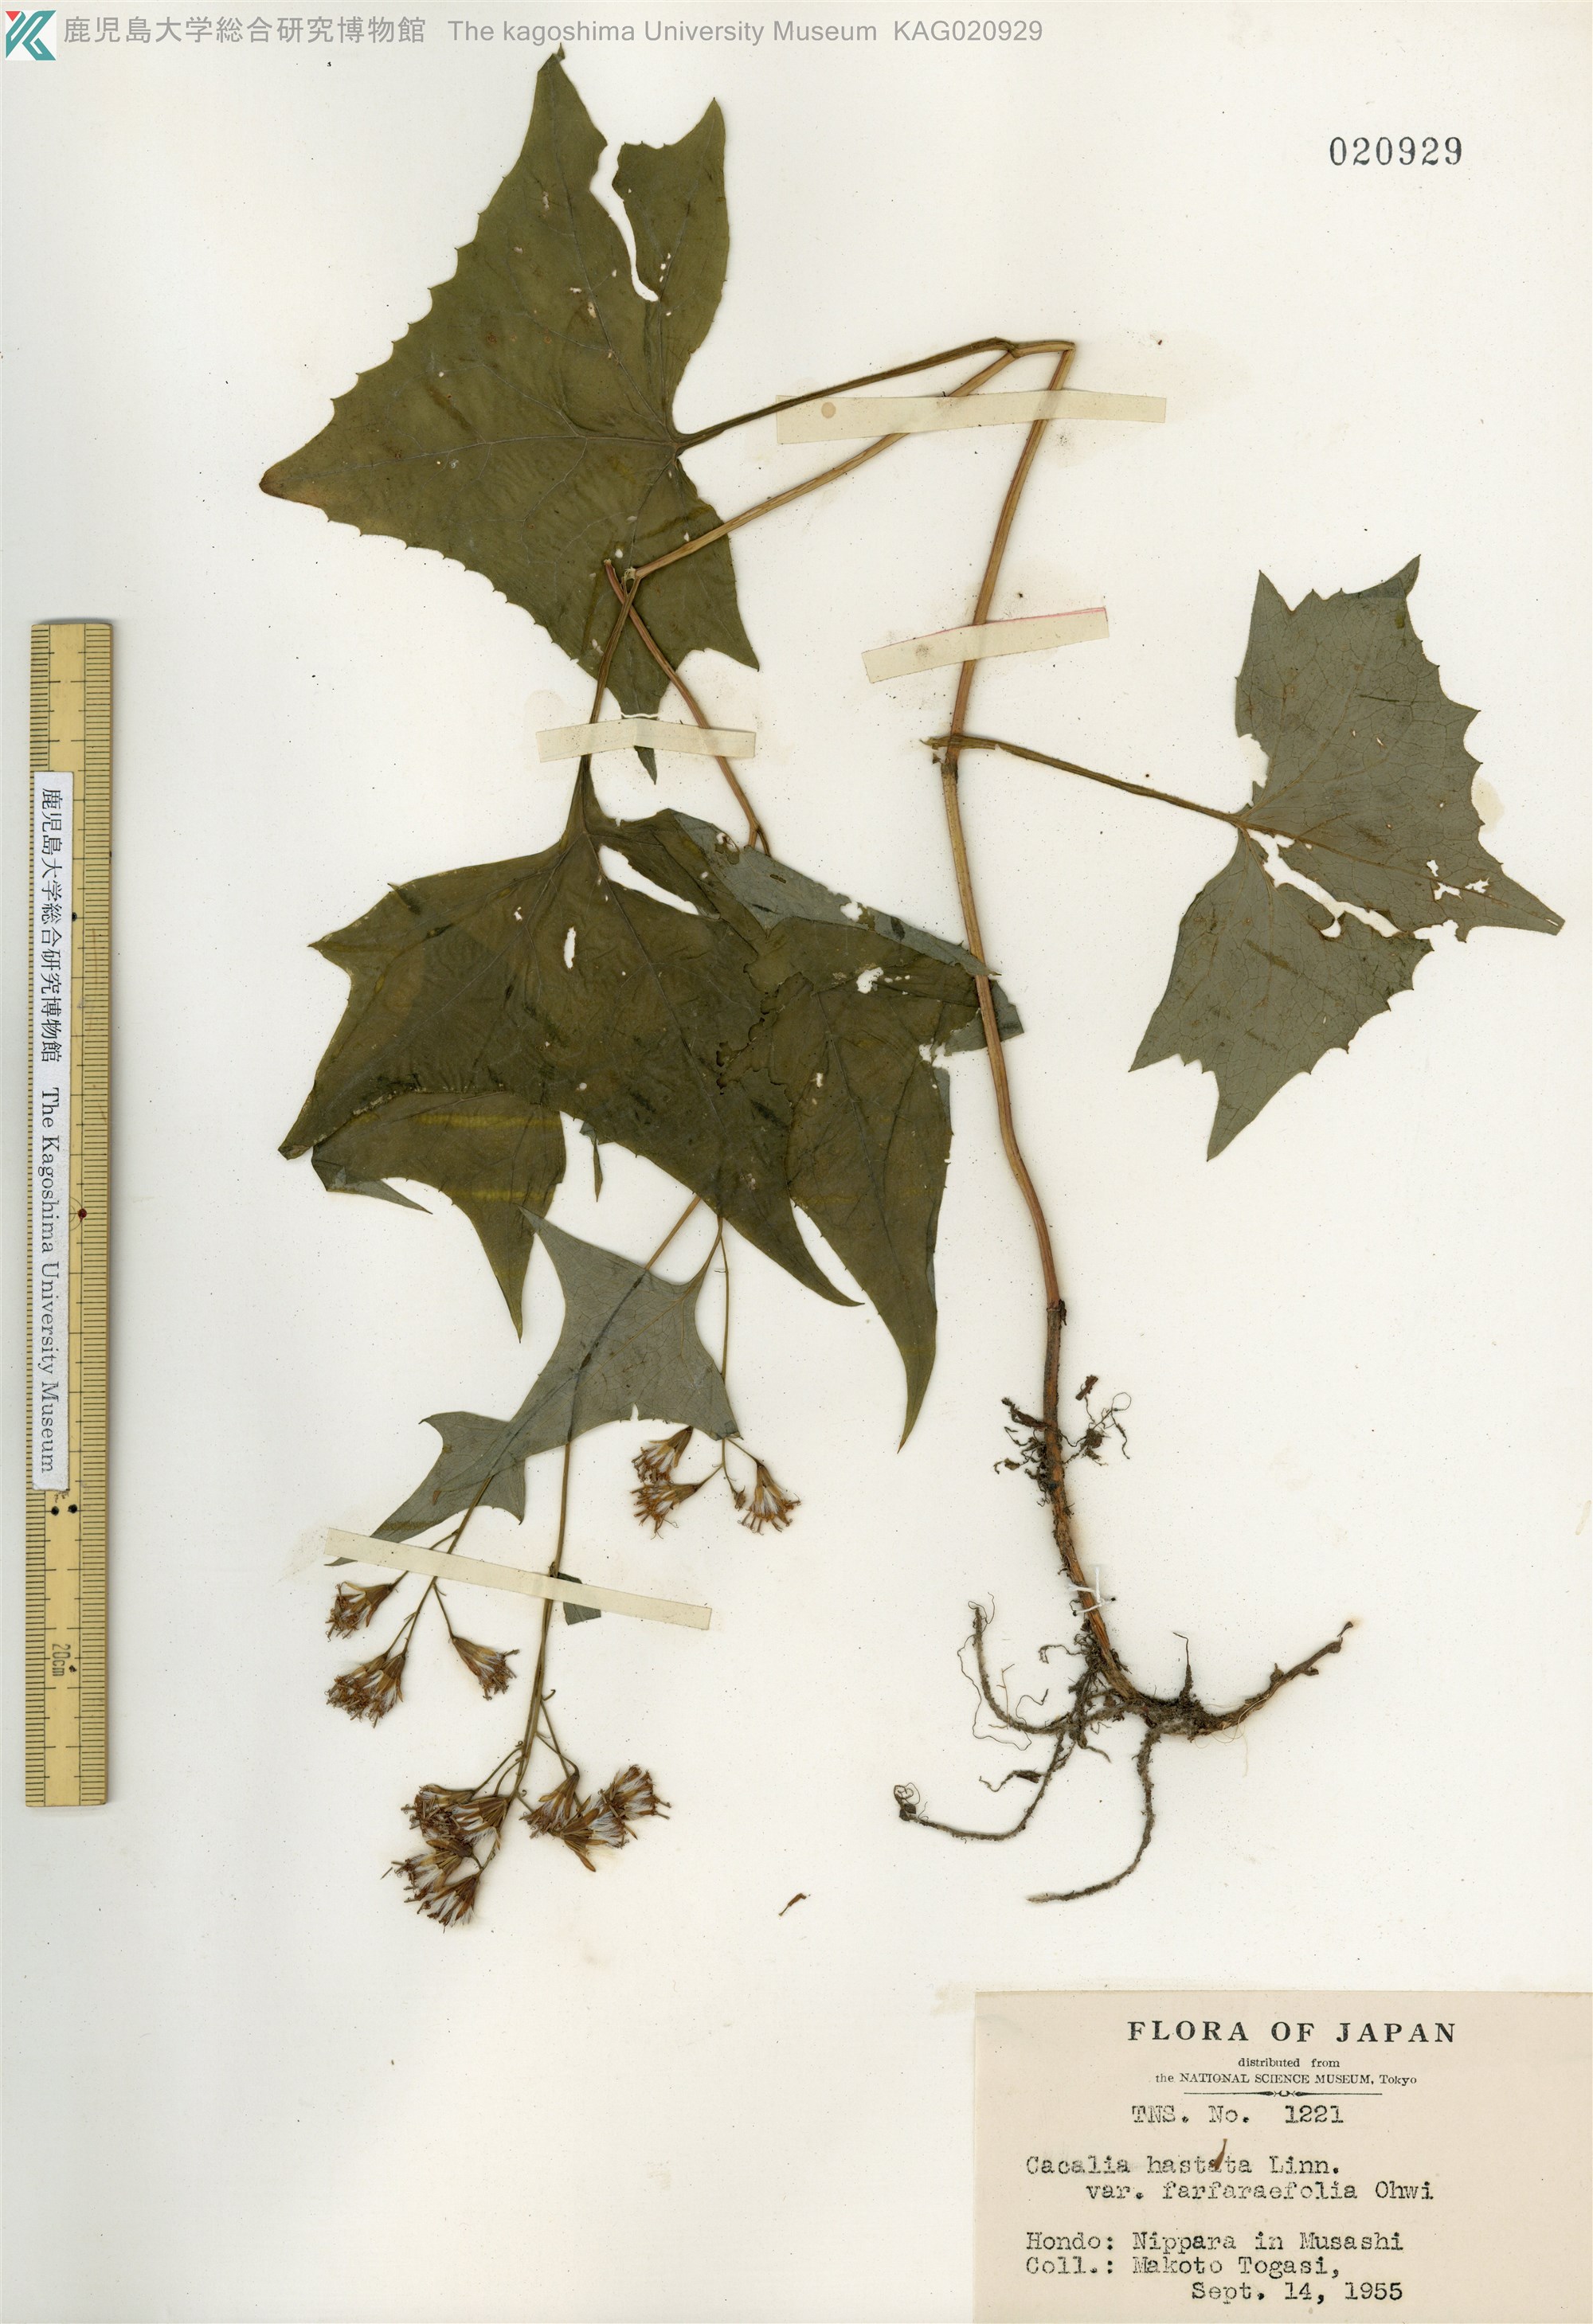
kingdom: Plantae
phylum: Tracheophyta
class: Magnoliopsida
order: Asterales
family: Asteraceae
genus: Parasenecio
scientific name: Parasenecio maximowicziana
